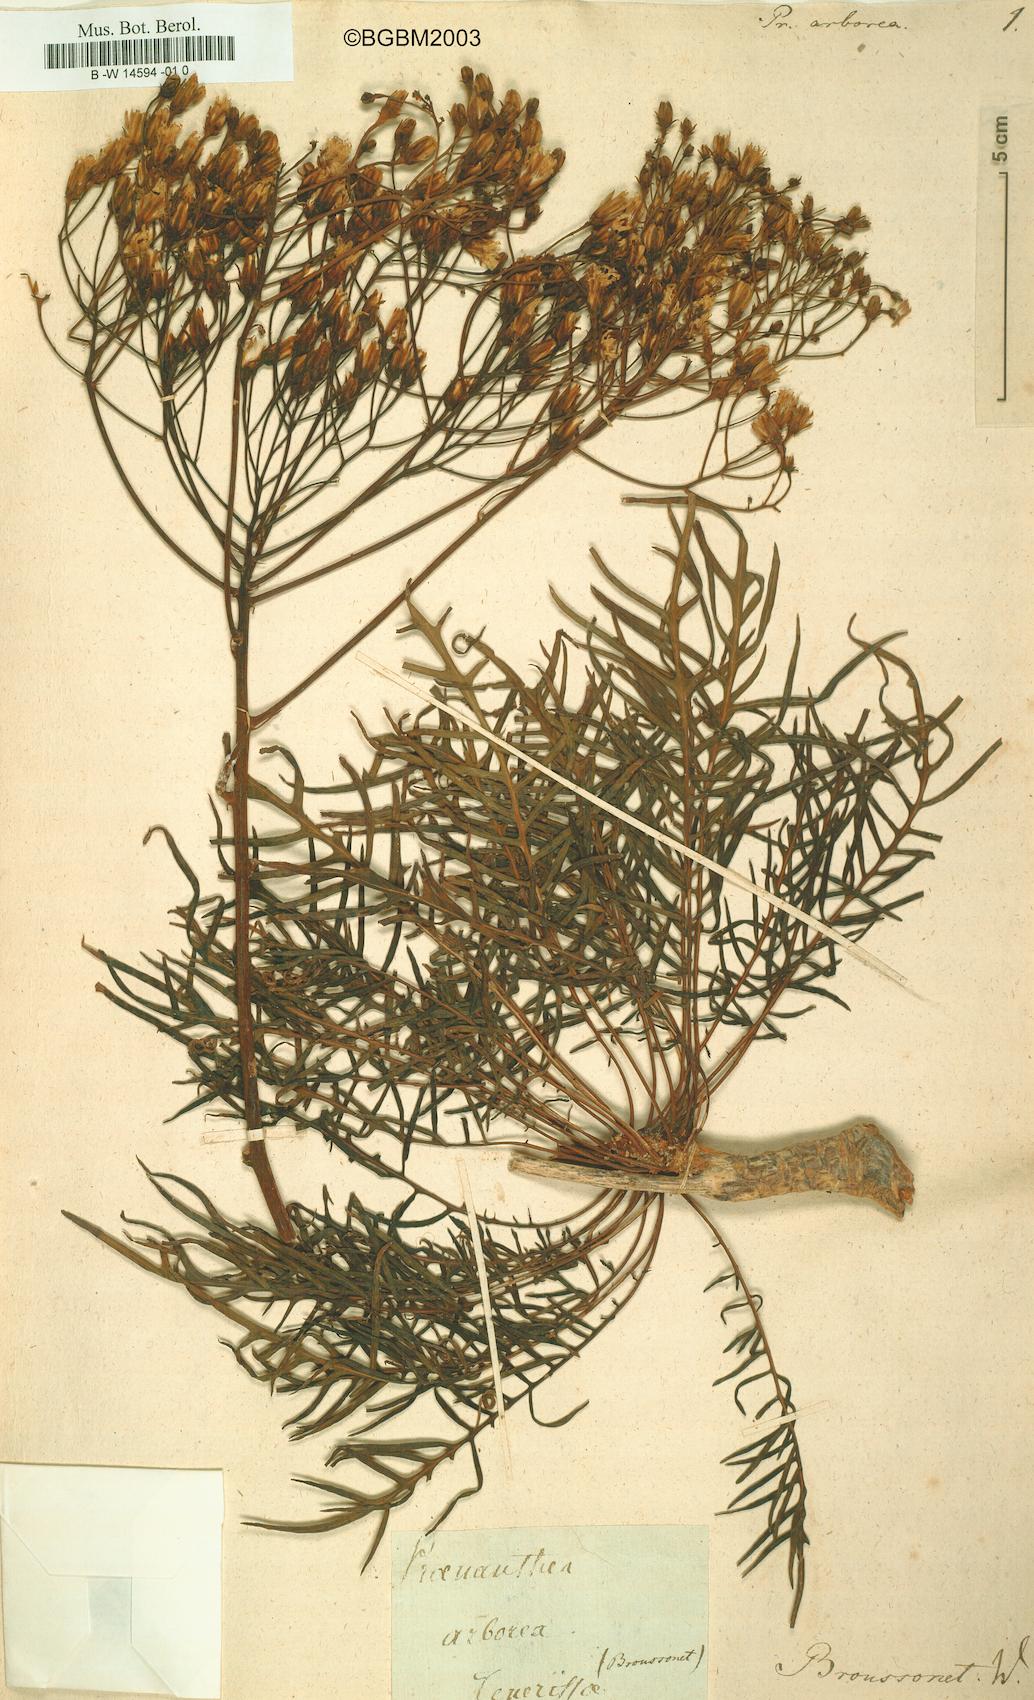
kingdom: Plantae
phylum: Tracheophyta
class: Magnoliopsida
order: Asterales
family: Asteraceae
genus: Sonchus
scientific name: Sonchus arboreus
